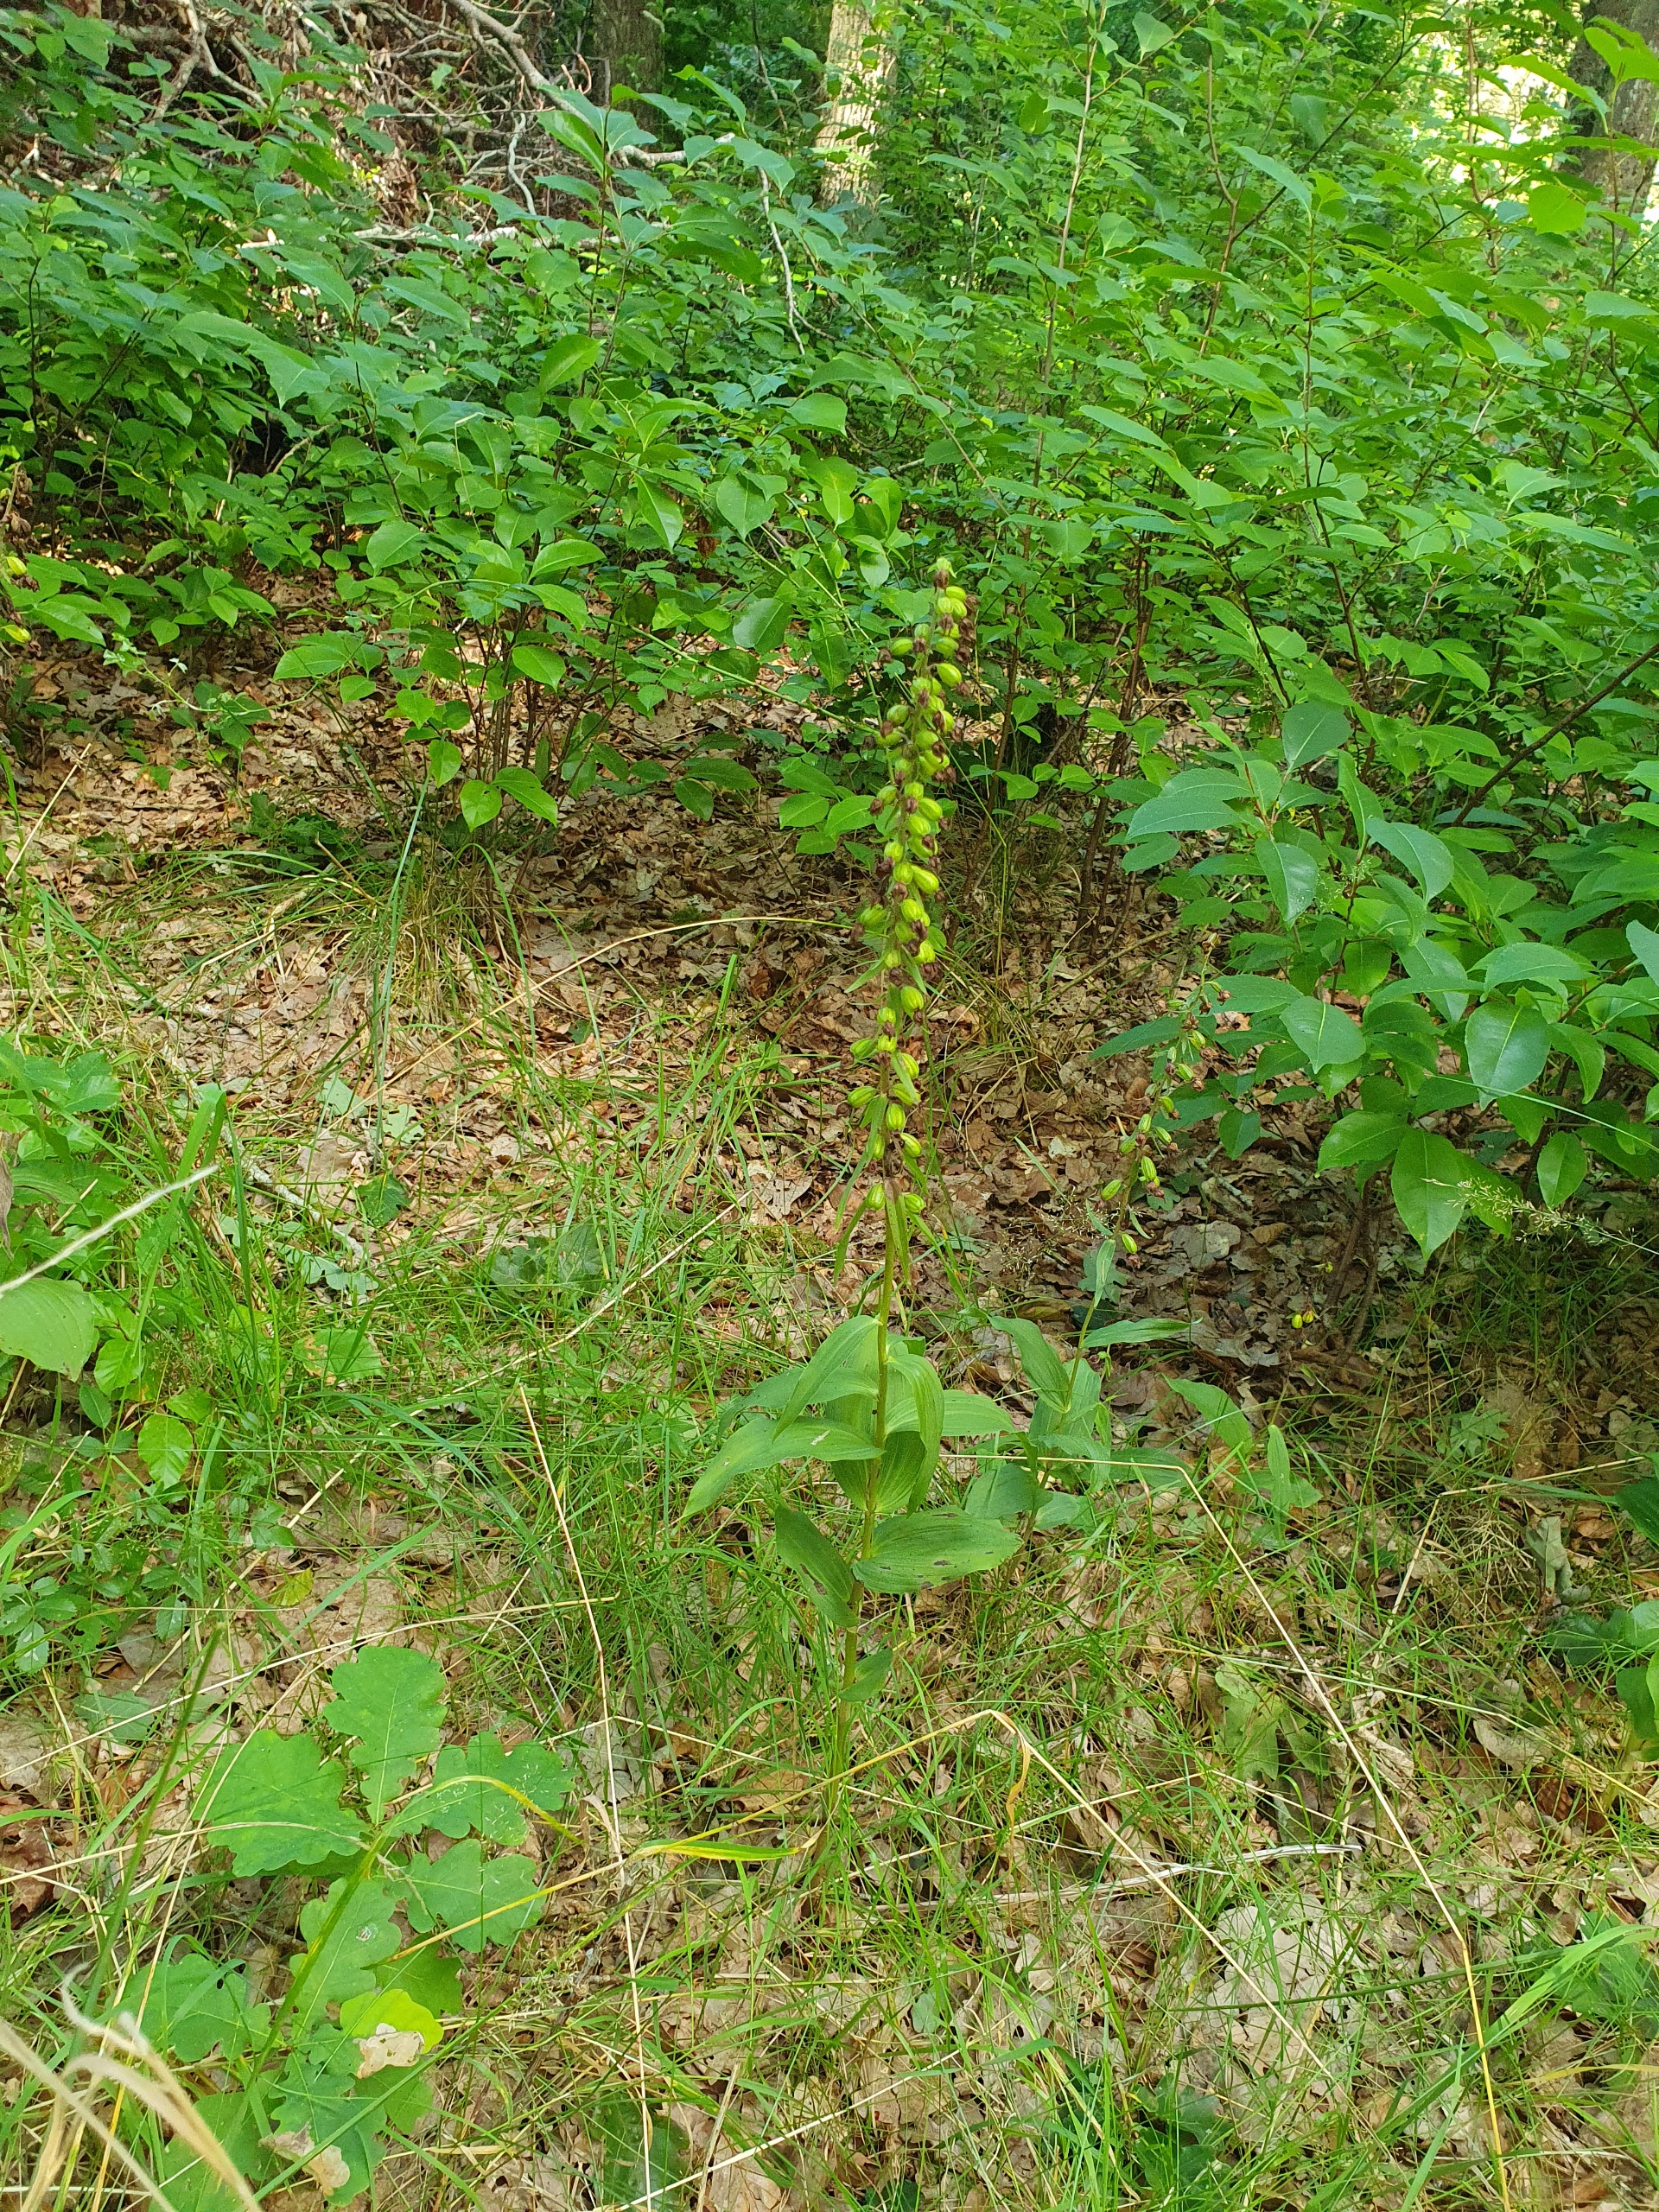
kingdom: Plantae
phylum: Tracheophyta
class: Liliopsida
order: Asparagales
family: Orchidaceae
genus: Epipactis
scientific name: Epipactis helleborine
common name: Skov-hullæbe
